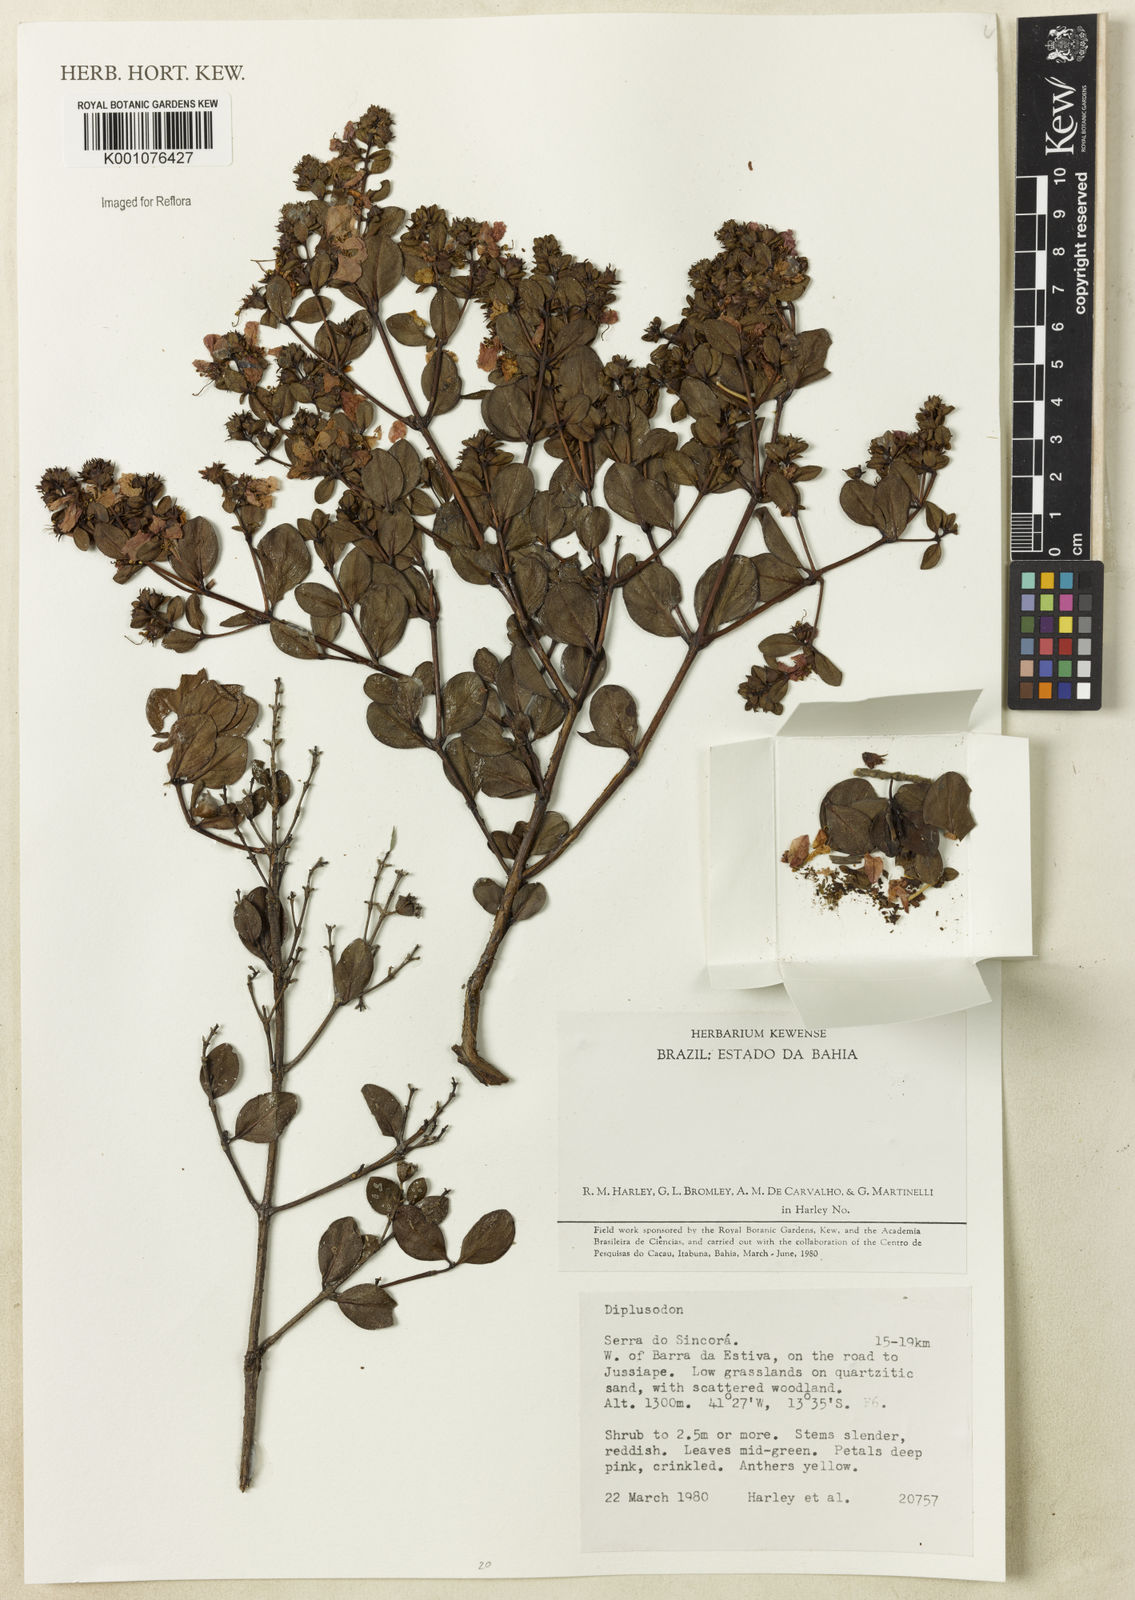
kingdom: Plantae
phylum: Tracheophyta
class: Magnoliopsida
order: Myrtales
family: Lythraceae
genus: Diplusodon
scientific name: Diplusodon
